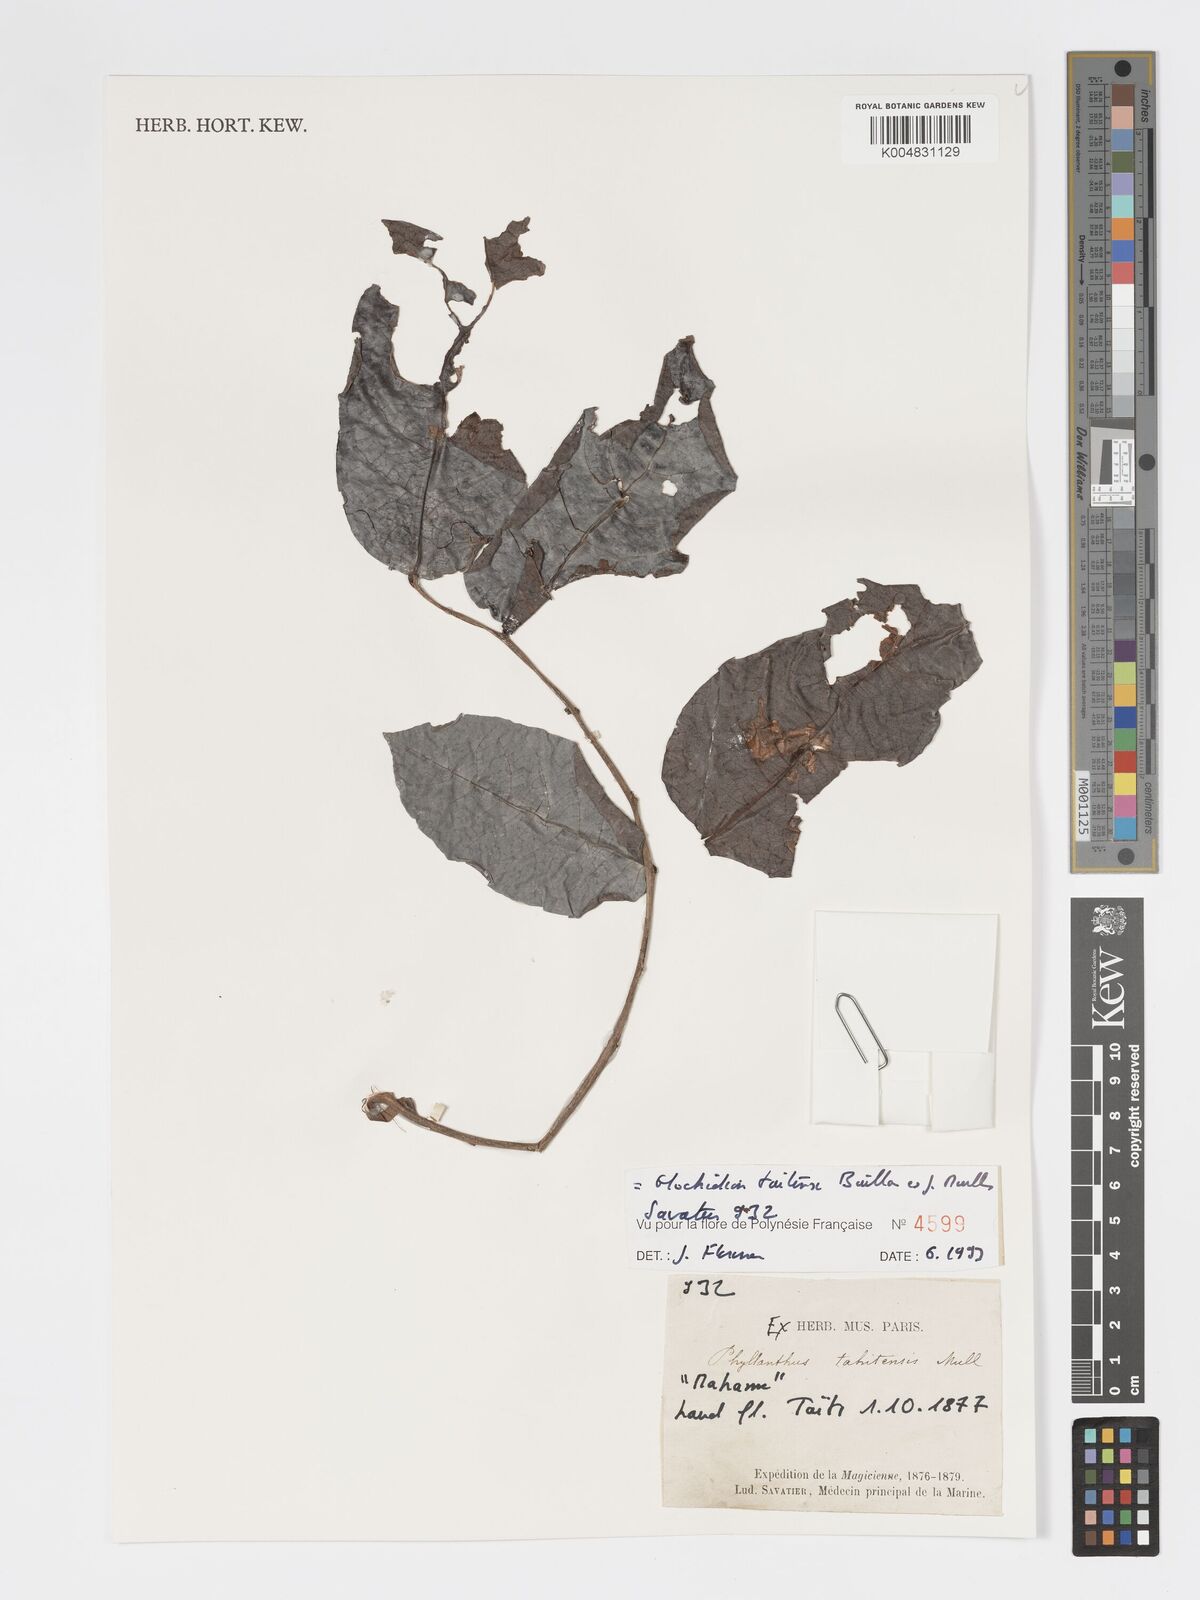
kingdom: Plantae
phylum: Tracheophyta
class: Magnoliopsida
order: Malpighiales
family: Phyllanthaceae
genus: Glochidion
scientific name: Glochidion taitense
